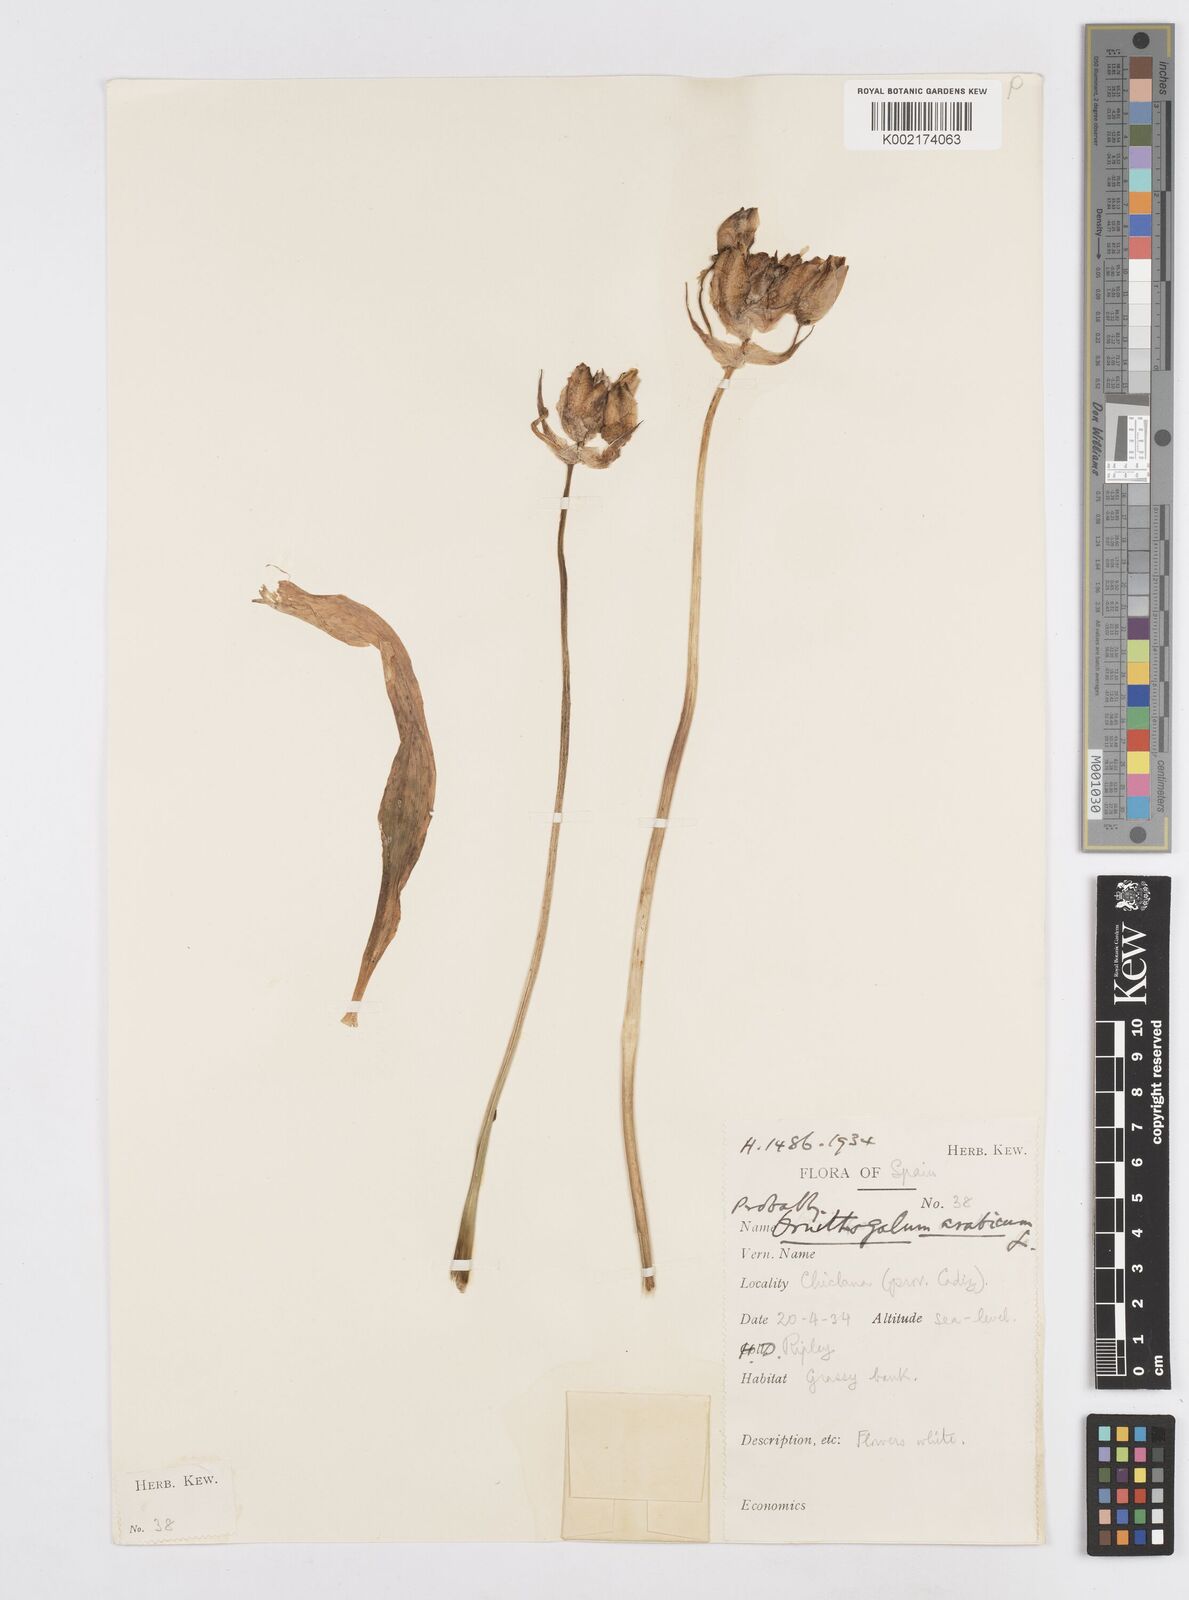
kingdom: Plantae
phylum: Tracheophyta
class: Liliopsida
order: Asparagales
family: Asparagaceae
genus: Ornithogalum
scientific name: Ornithogalum arabicum
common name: Arabian starflower
